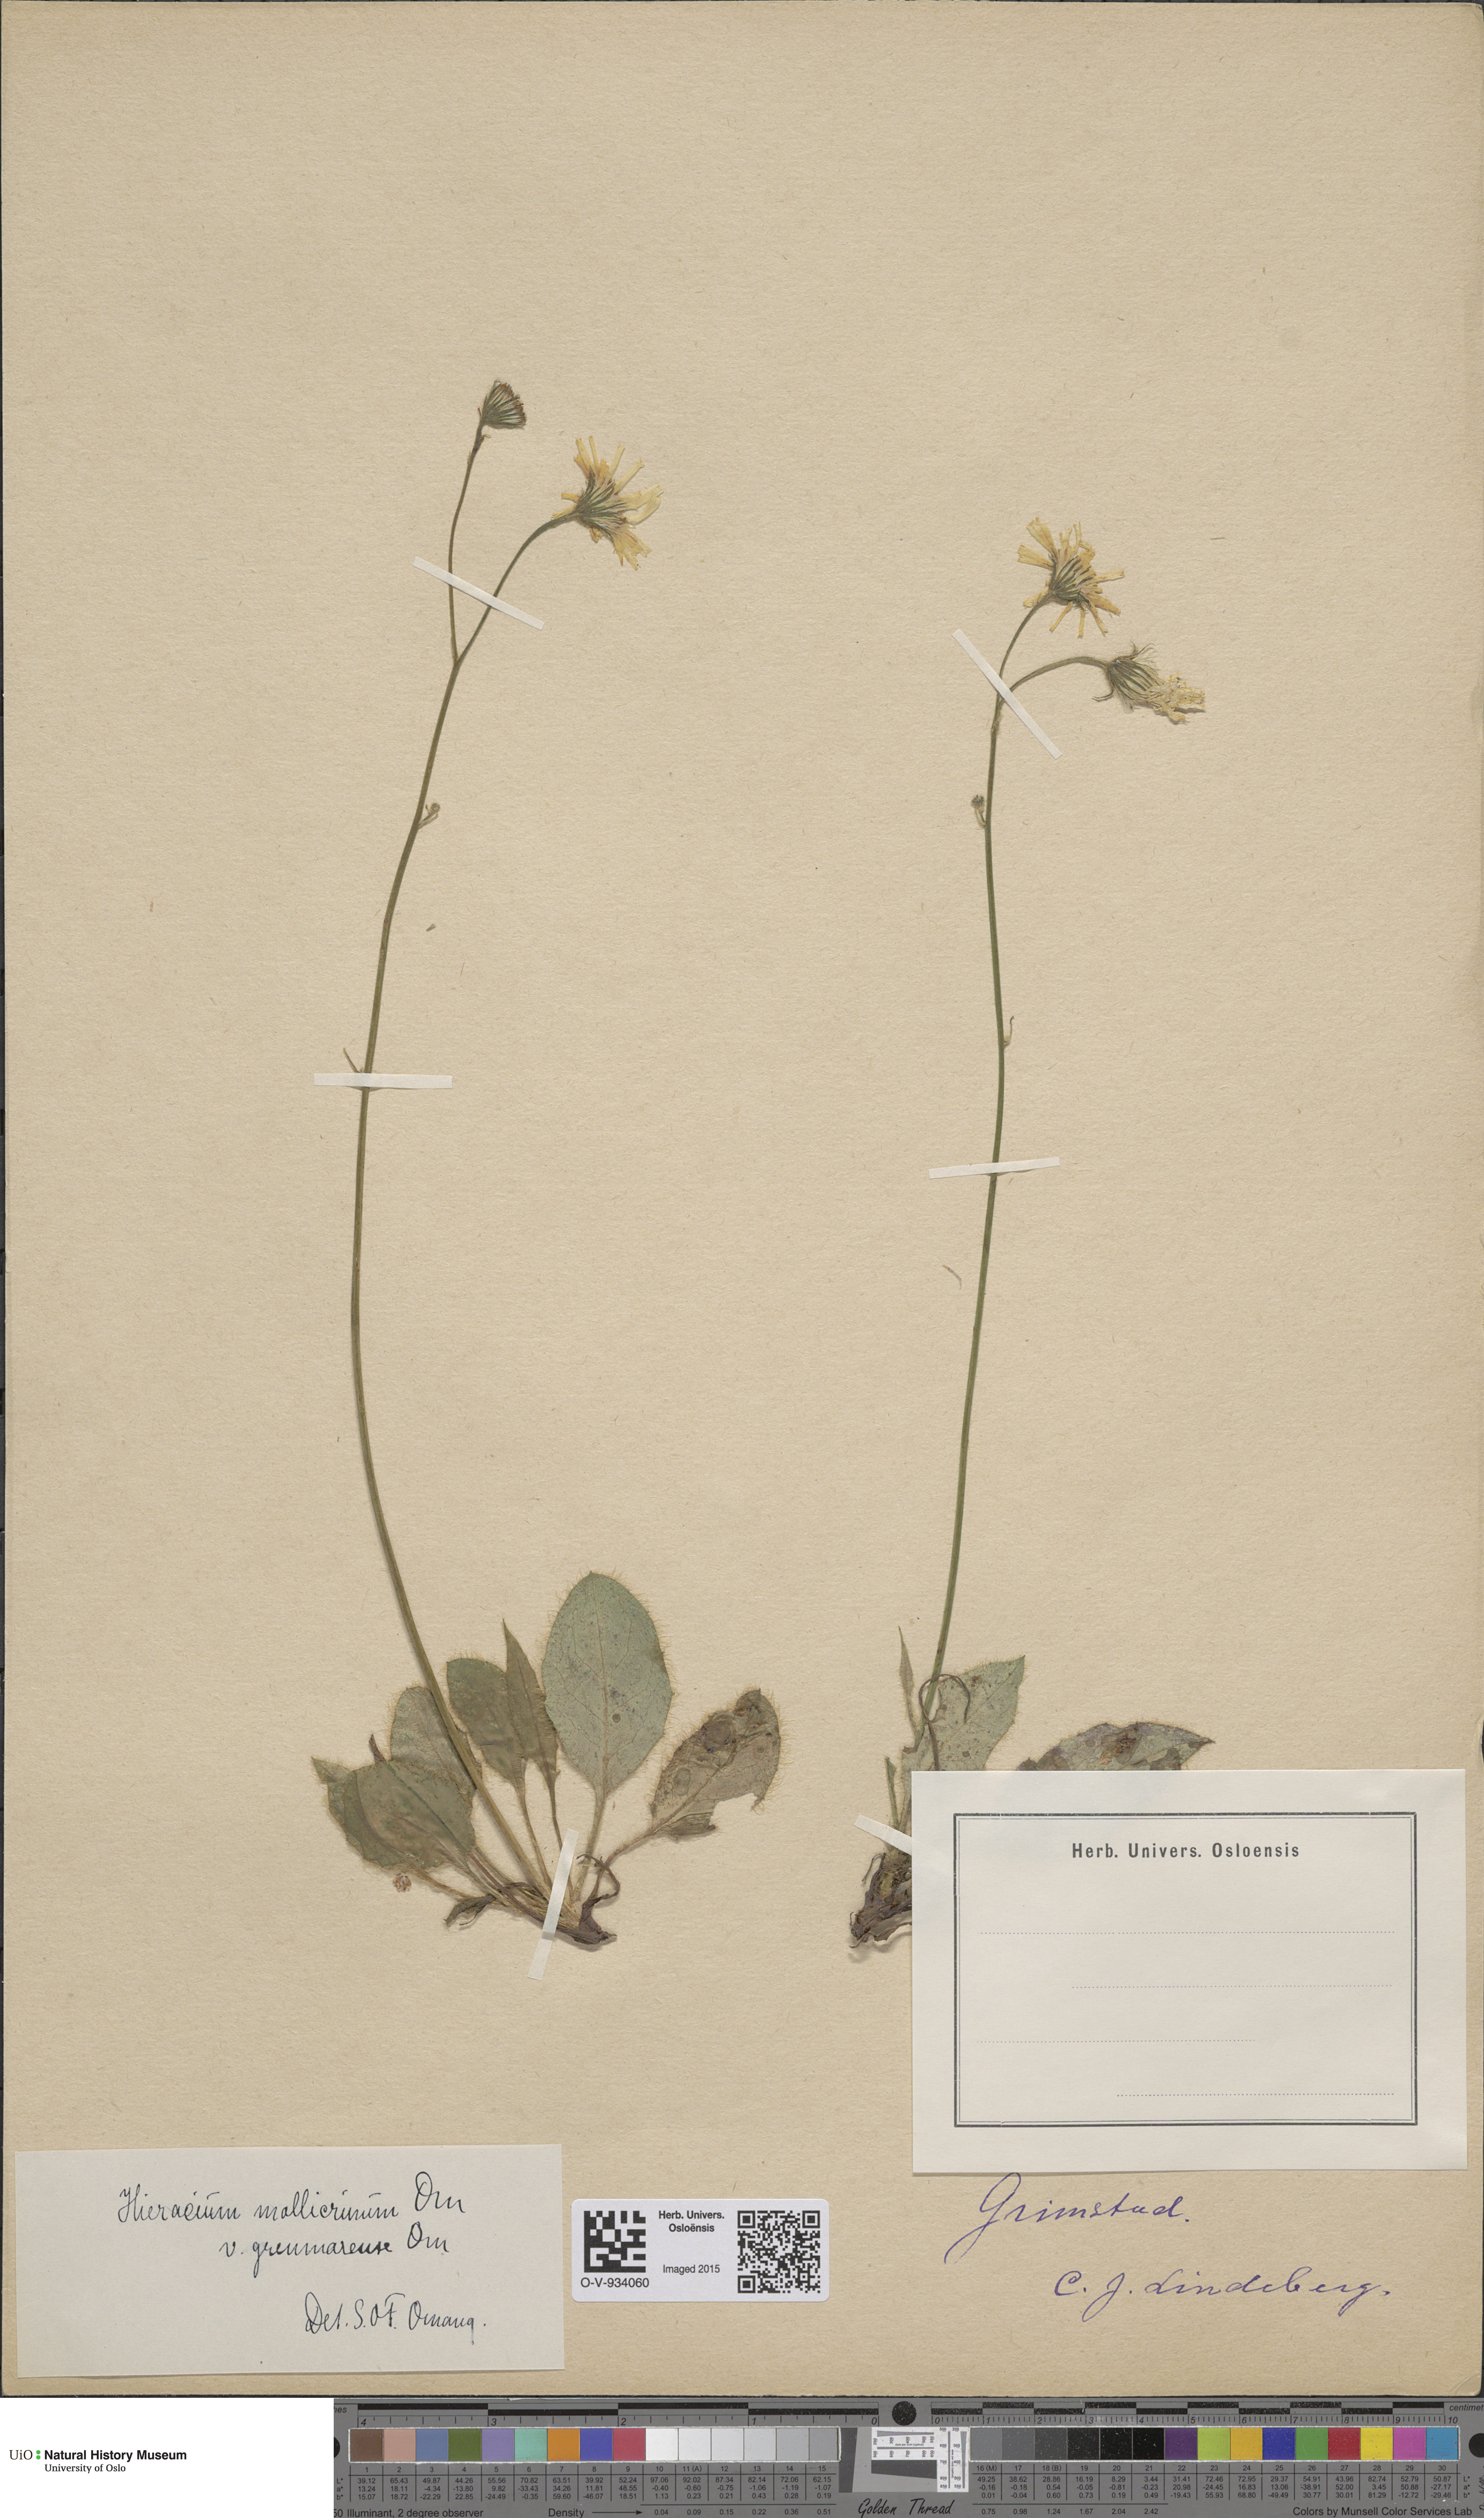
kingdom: Plantae
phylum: Tracheophyta
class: Magnoliopsida
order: Asterales
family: Asteraceae
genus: Hieracium
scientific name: Hieracium schmidtii
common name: Schmidt's hawkweed
